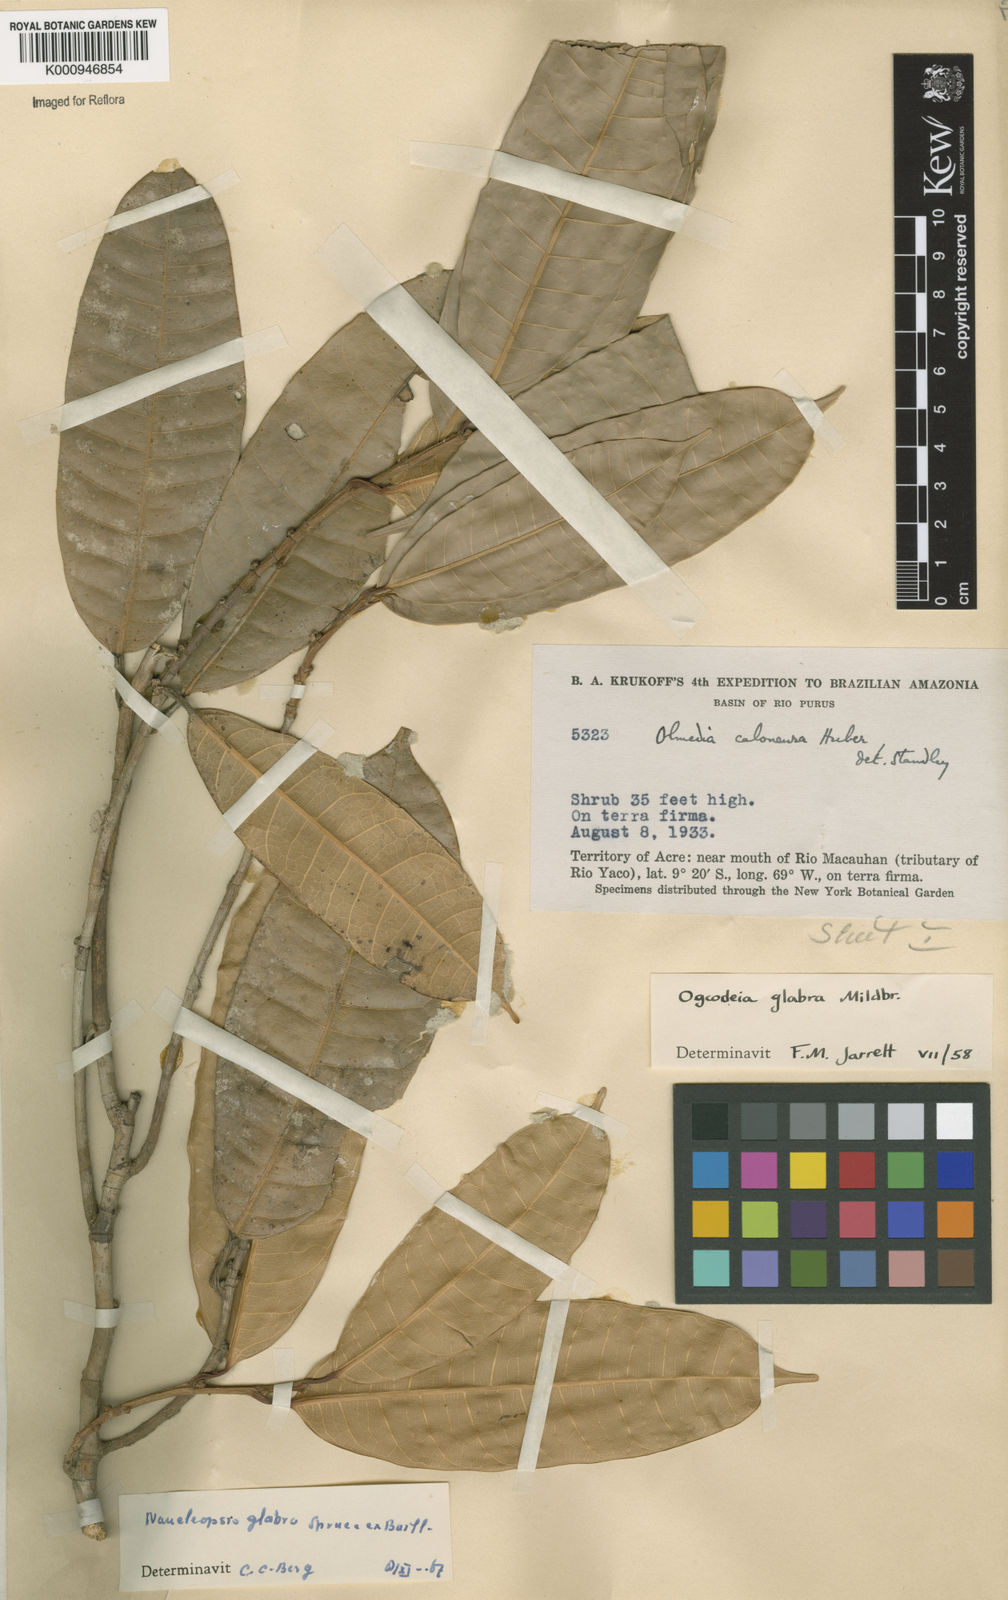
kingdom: Plantae
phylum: Tracheophyta
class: Magnoliopsida
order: Rosales
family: Moraceae
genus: Naucleopsis
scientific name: Naucleopsis glabra
